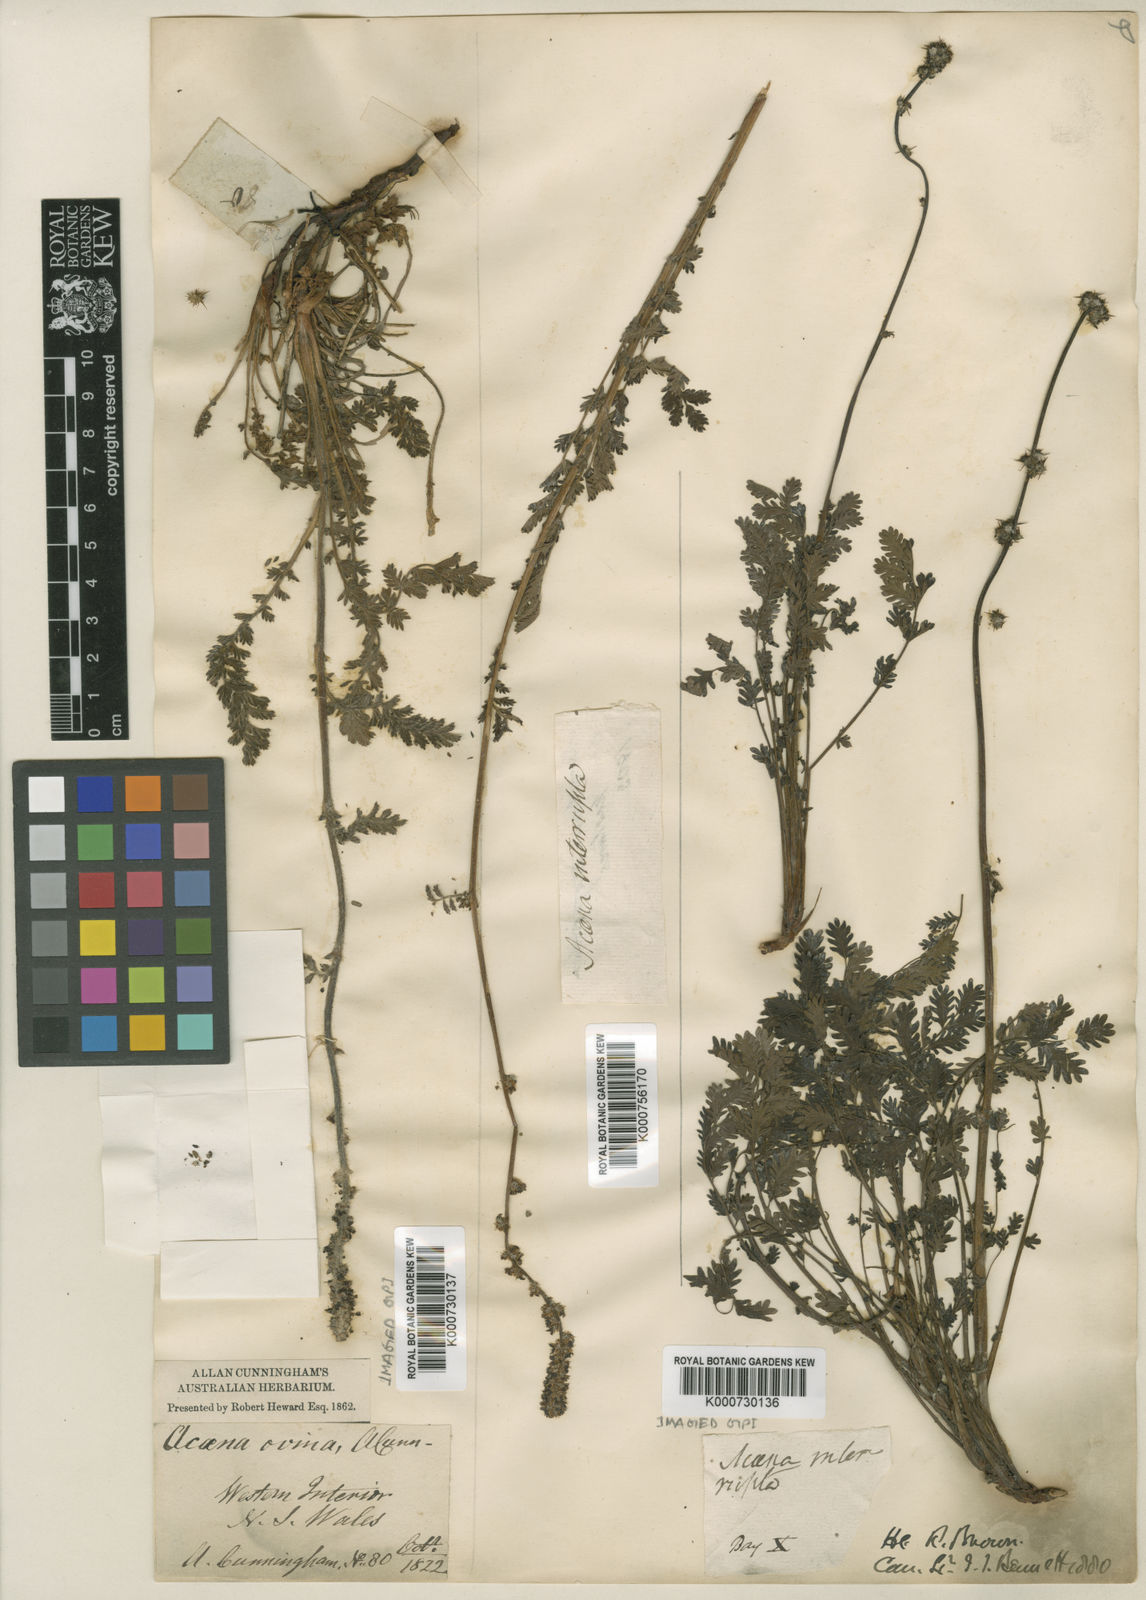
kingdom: Plantae
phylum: Tracheophyta
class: Magnoliopsida
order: Rosales
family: Rosaceae
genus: Acaena
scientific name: Acaena ovina
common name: Hairy sheepbur
